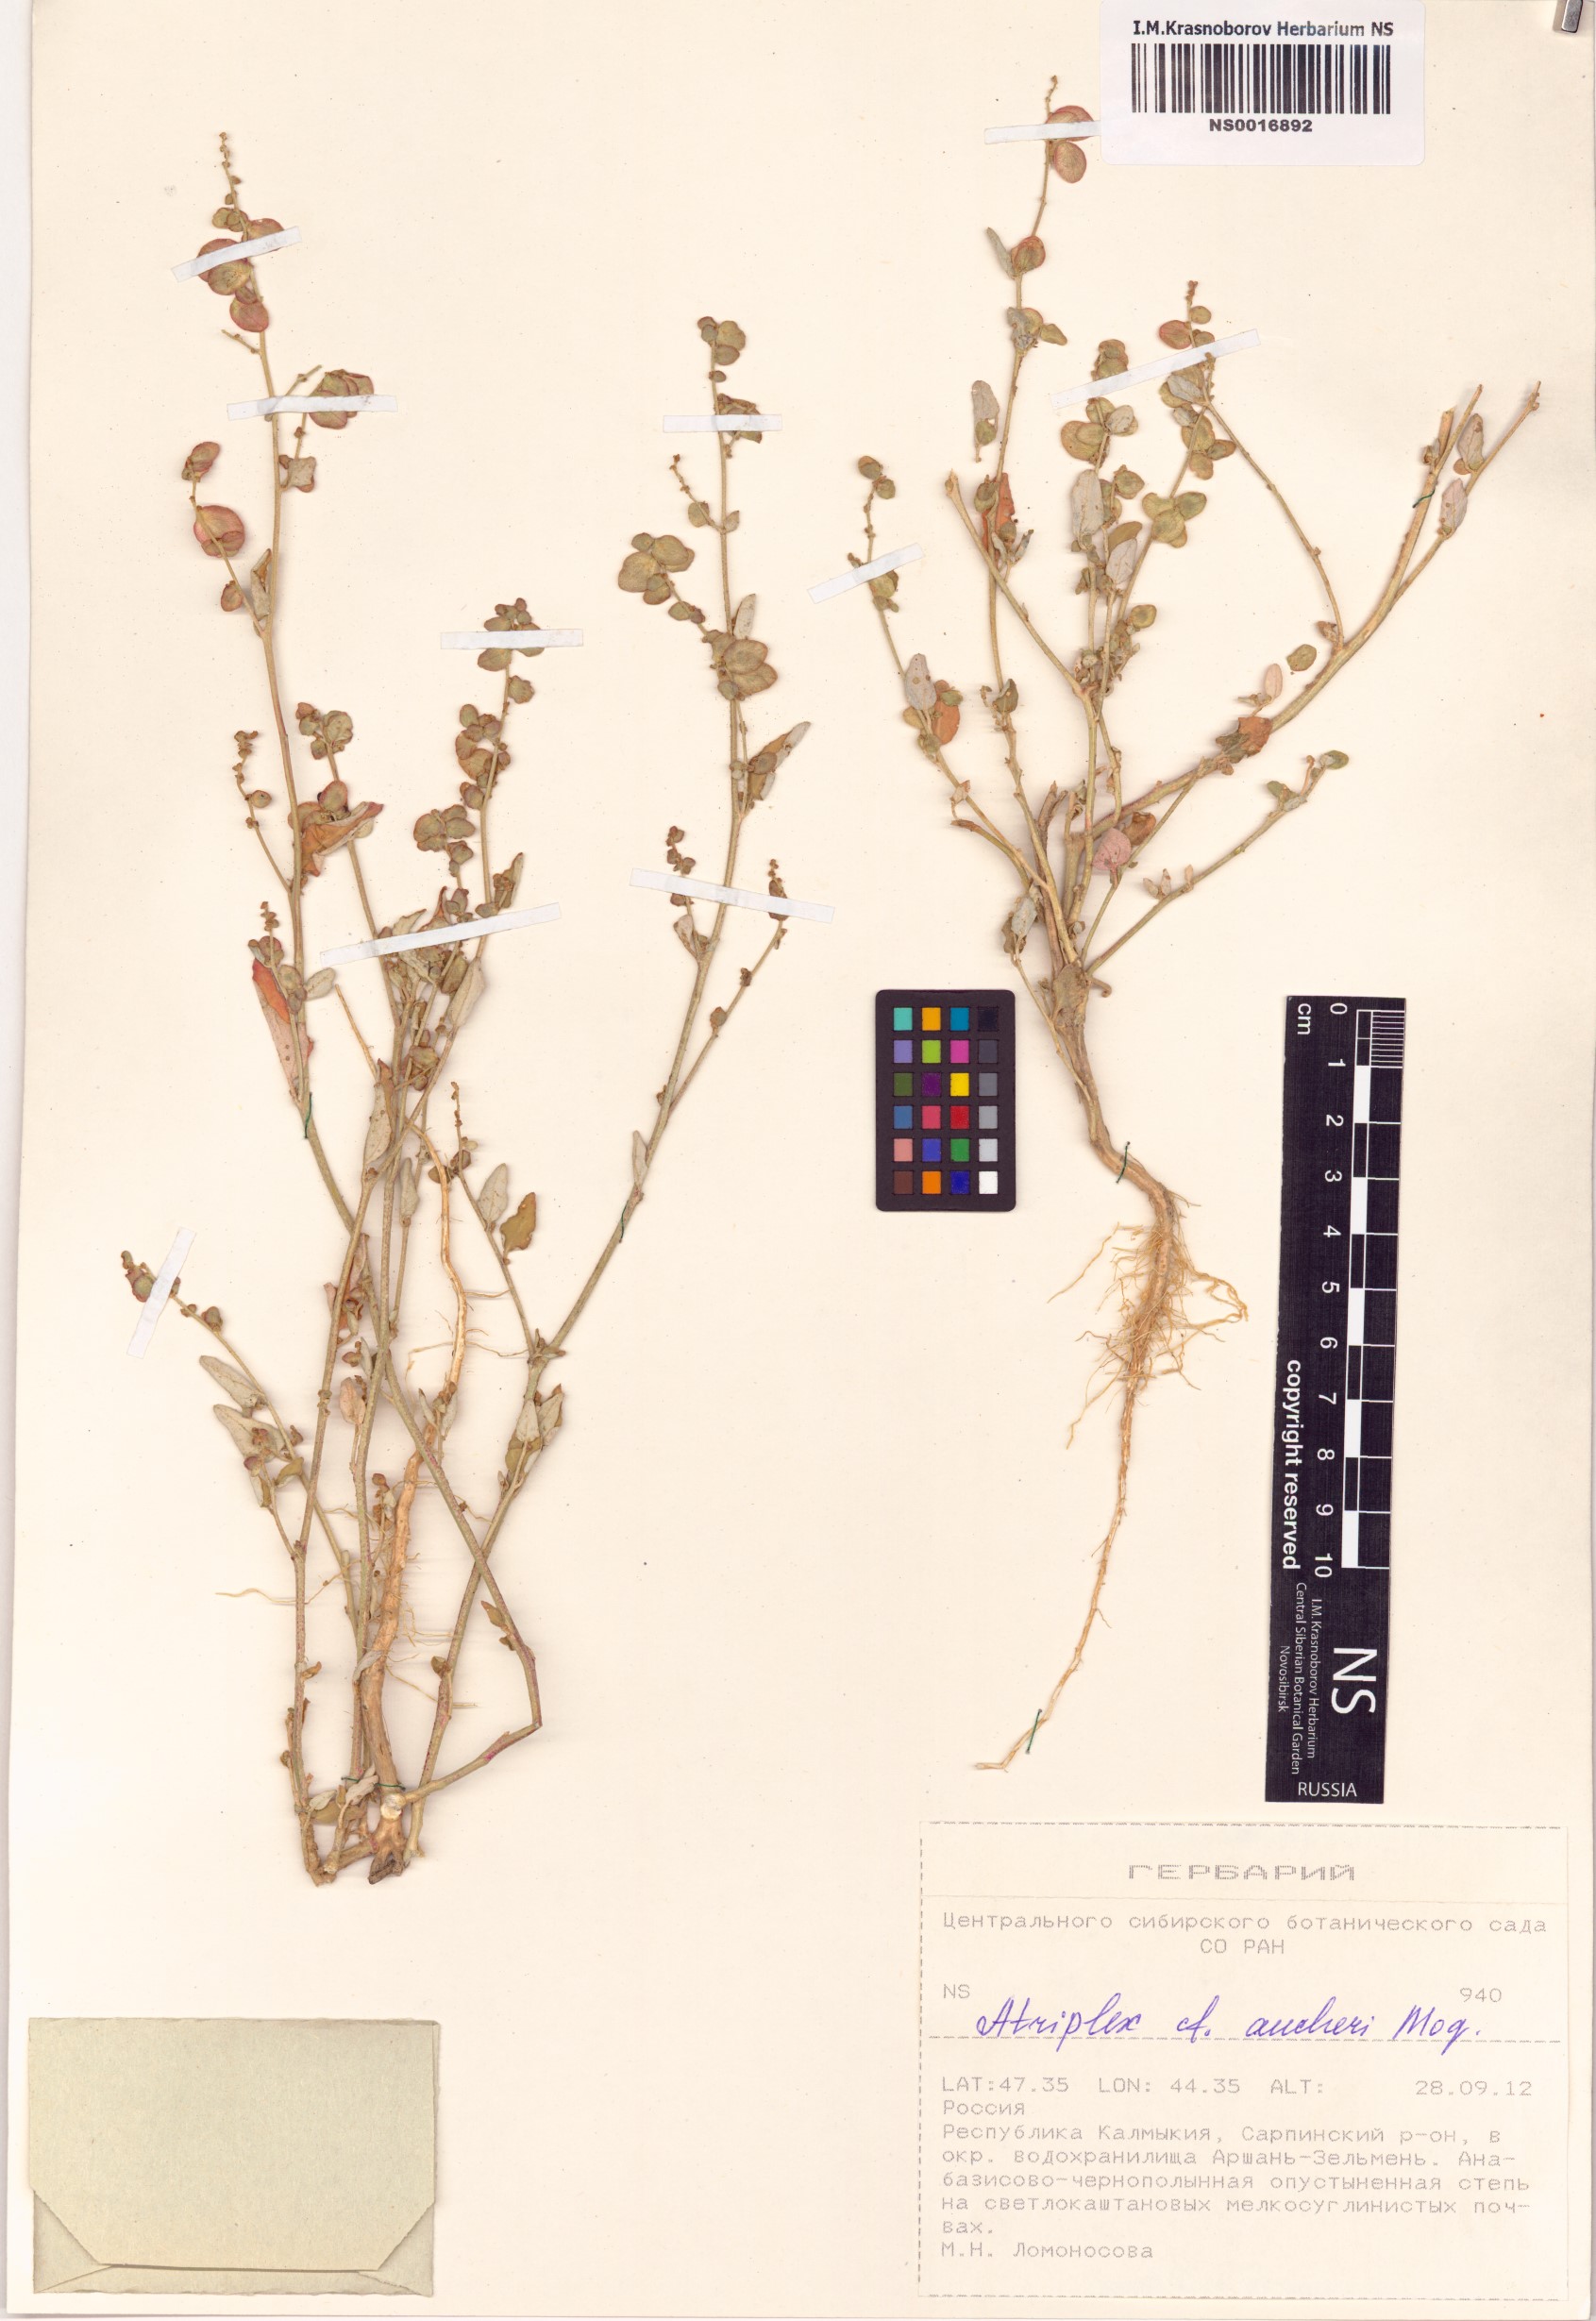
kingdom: Plantae
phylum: Tracheophyta
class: Magnoliopsida
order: Caryophyllales
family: Amaranthaceae
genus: Atriplex
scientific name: Atriplex aucheri
